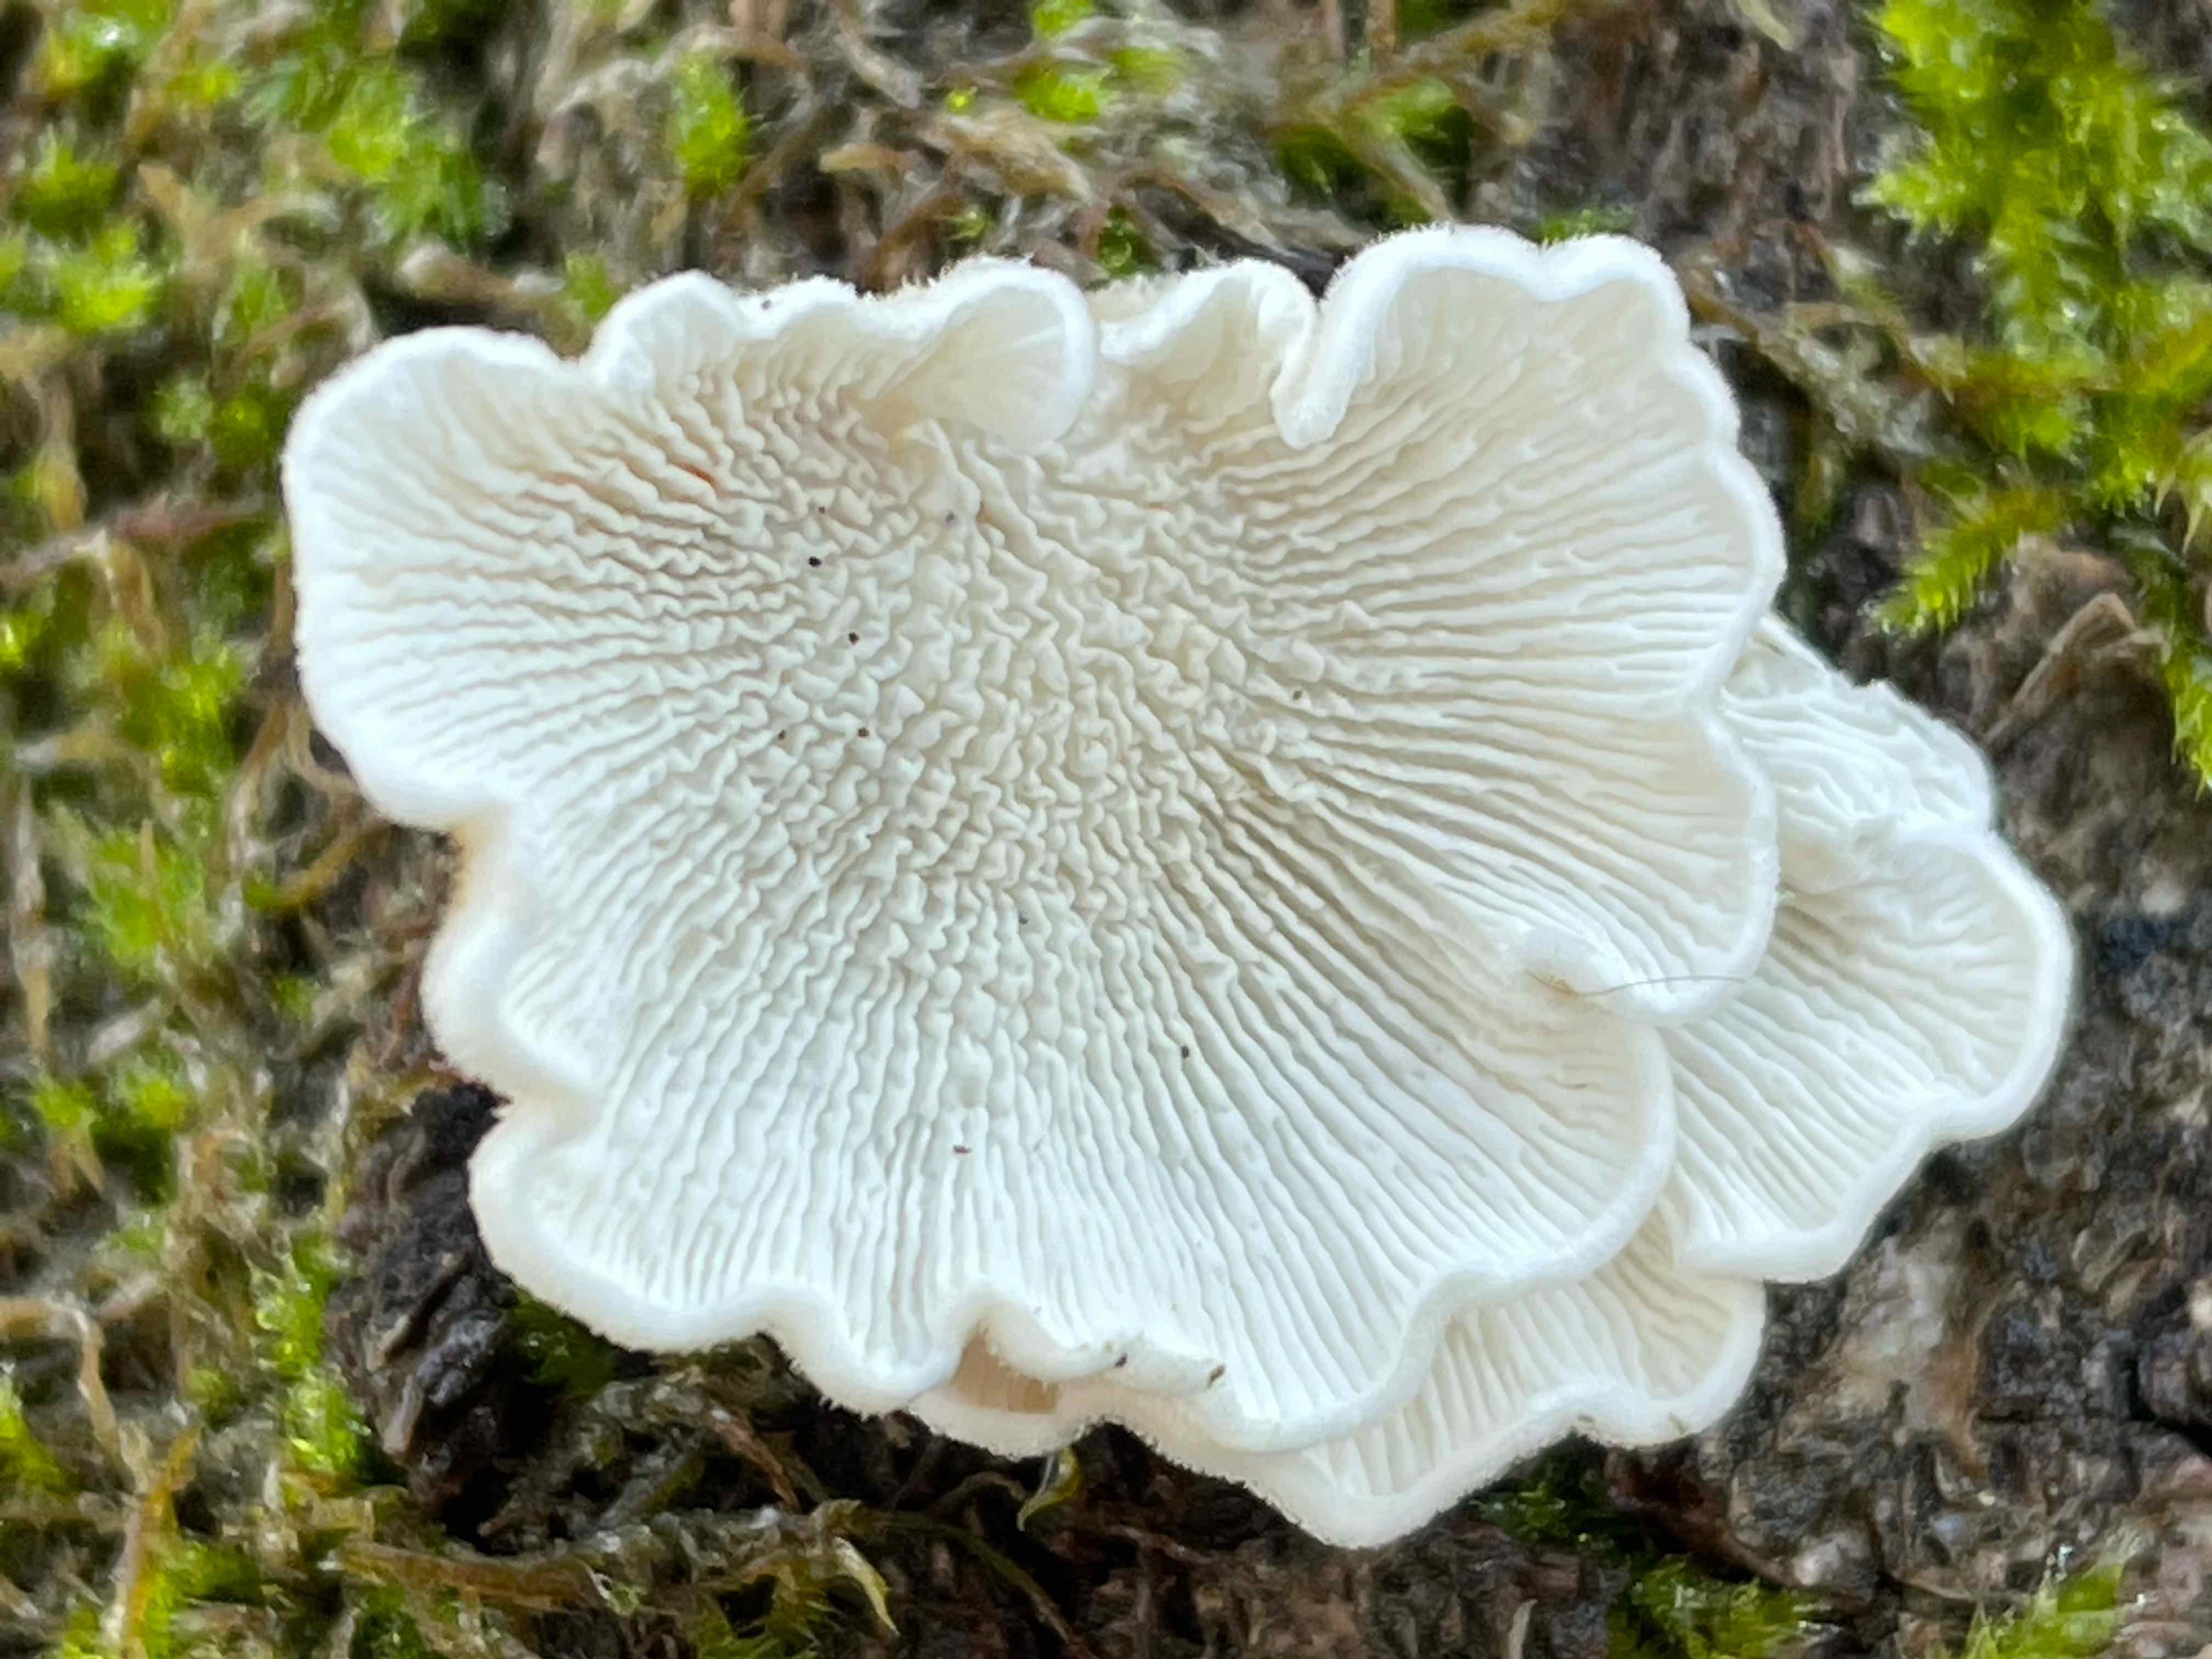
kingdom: Fungi
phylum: Basidiomycota
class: Agaricomycetes
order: Amylocorticiales
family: Amylocorticiaceae
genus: Plicaturopsis
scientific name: Plicaturopsis crispa
